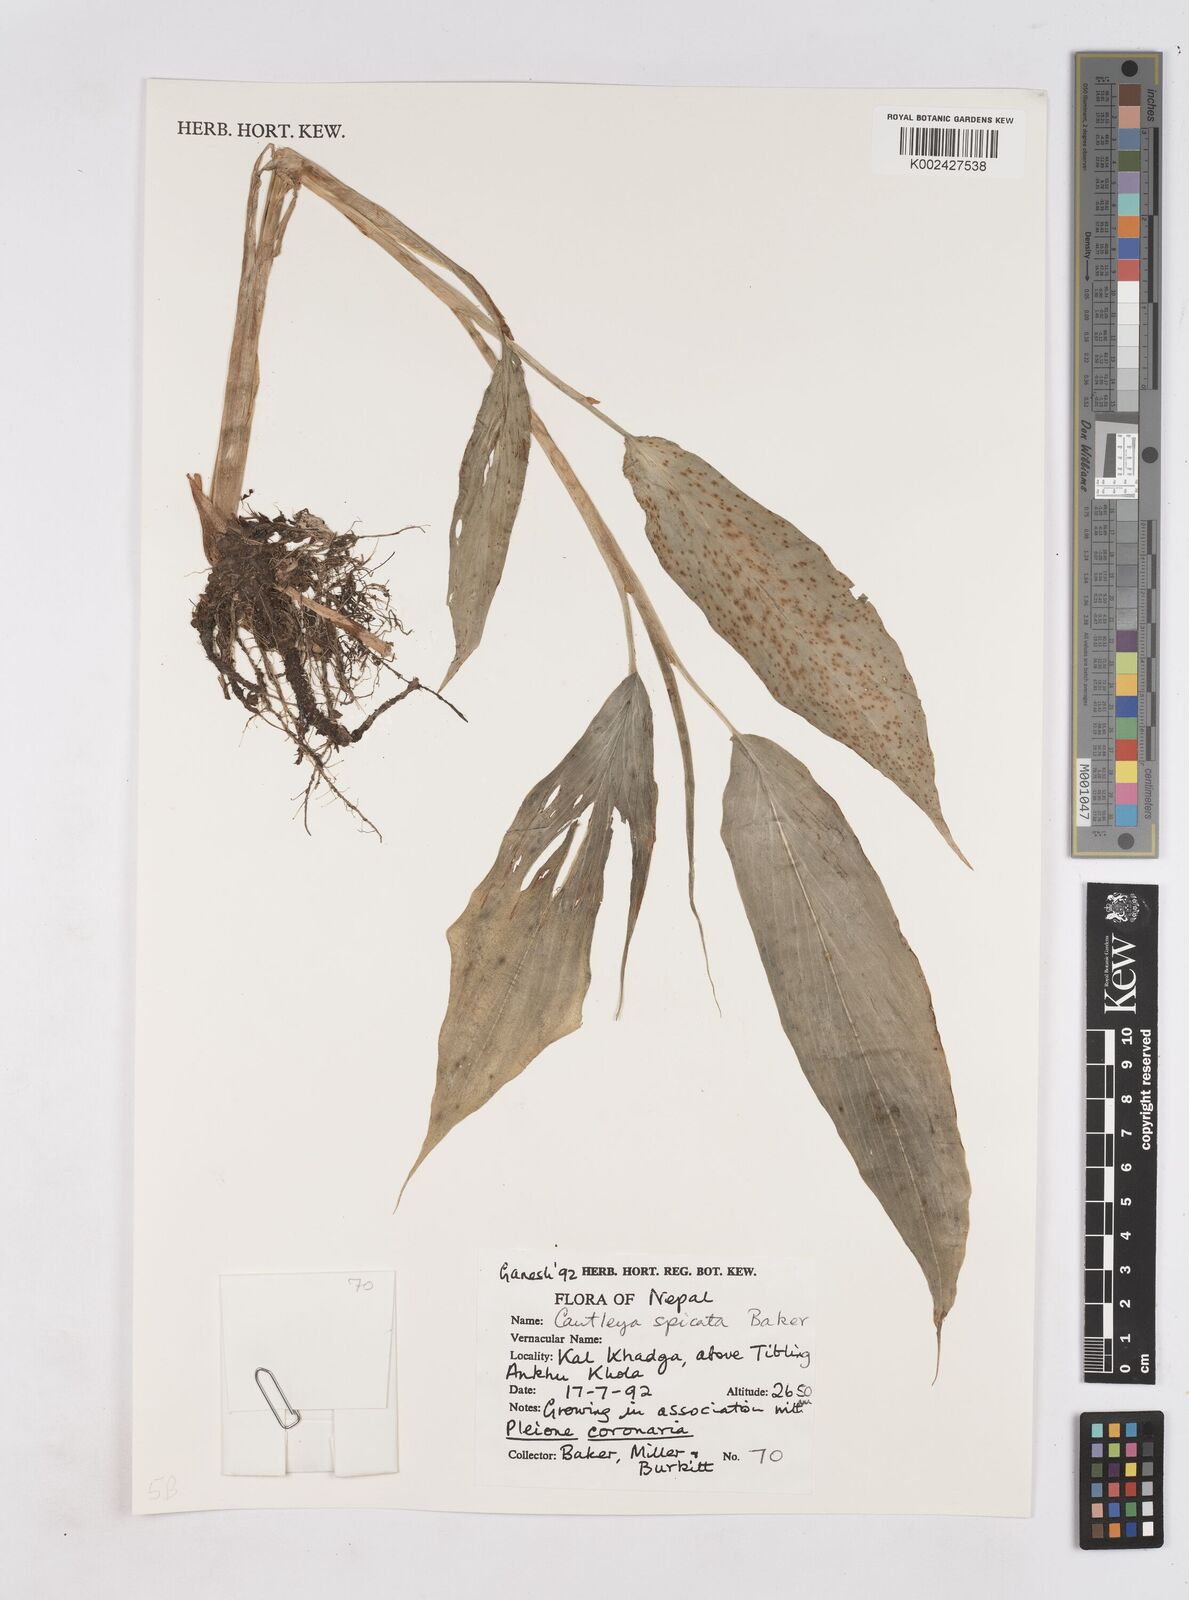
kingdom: Plantae
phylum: Tracheophyta
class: Liliopsida
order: Zingiberales
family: Zingiberaceae
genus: Cautleya
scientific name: Cautleya spicata
